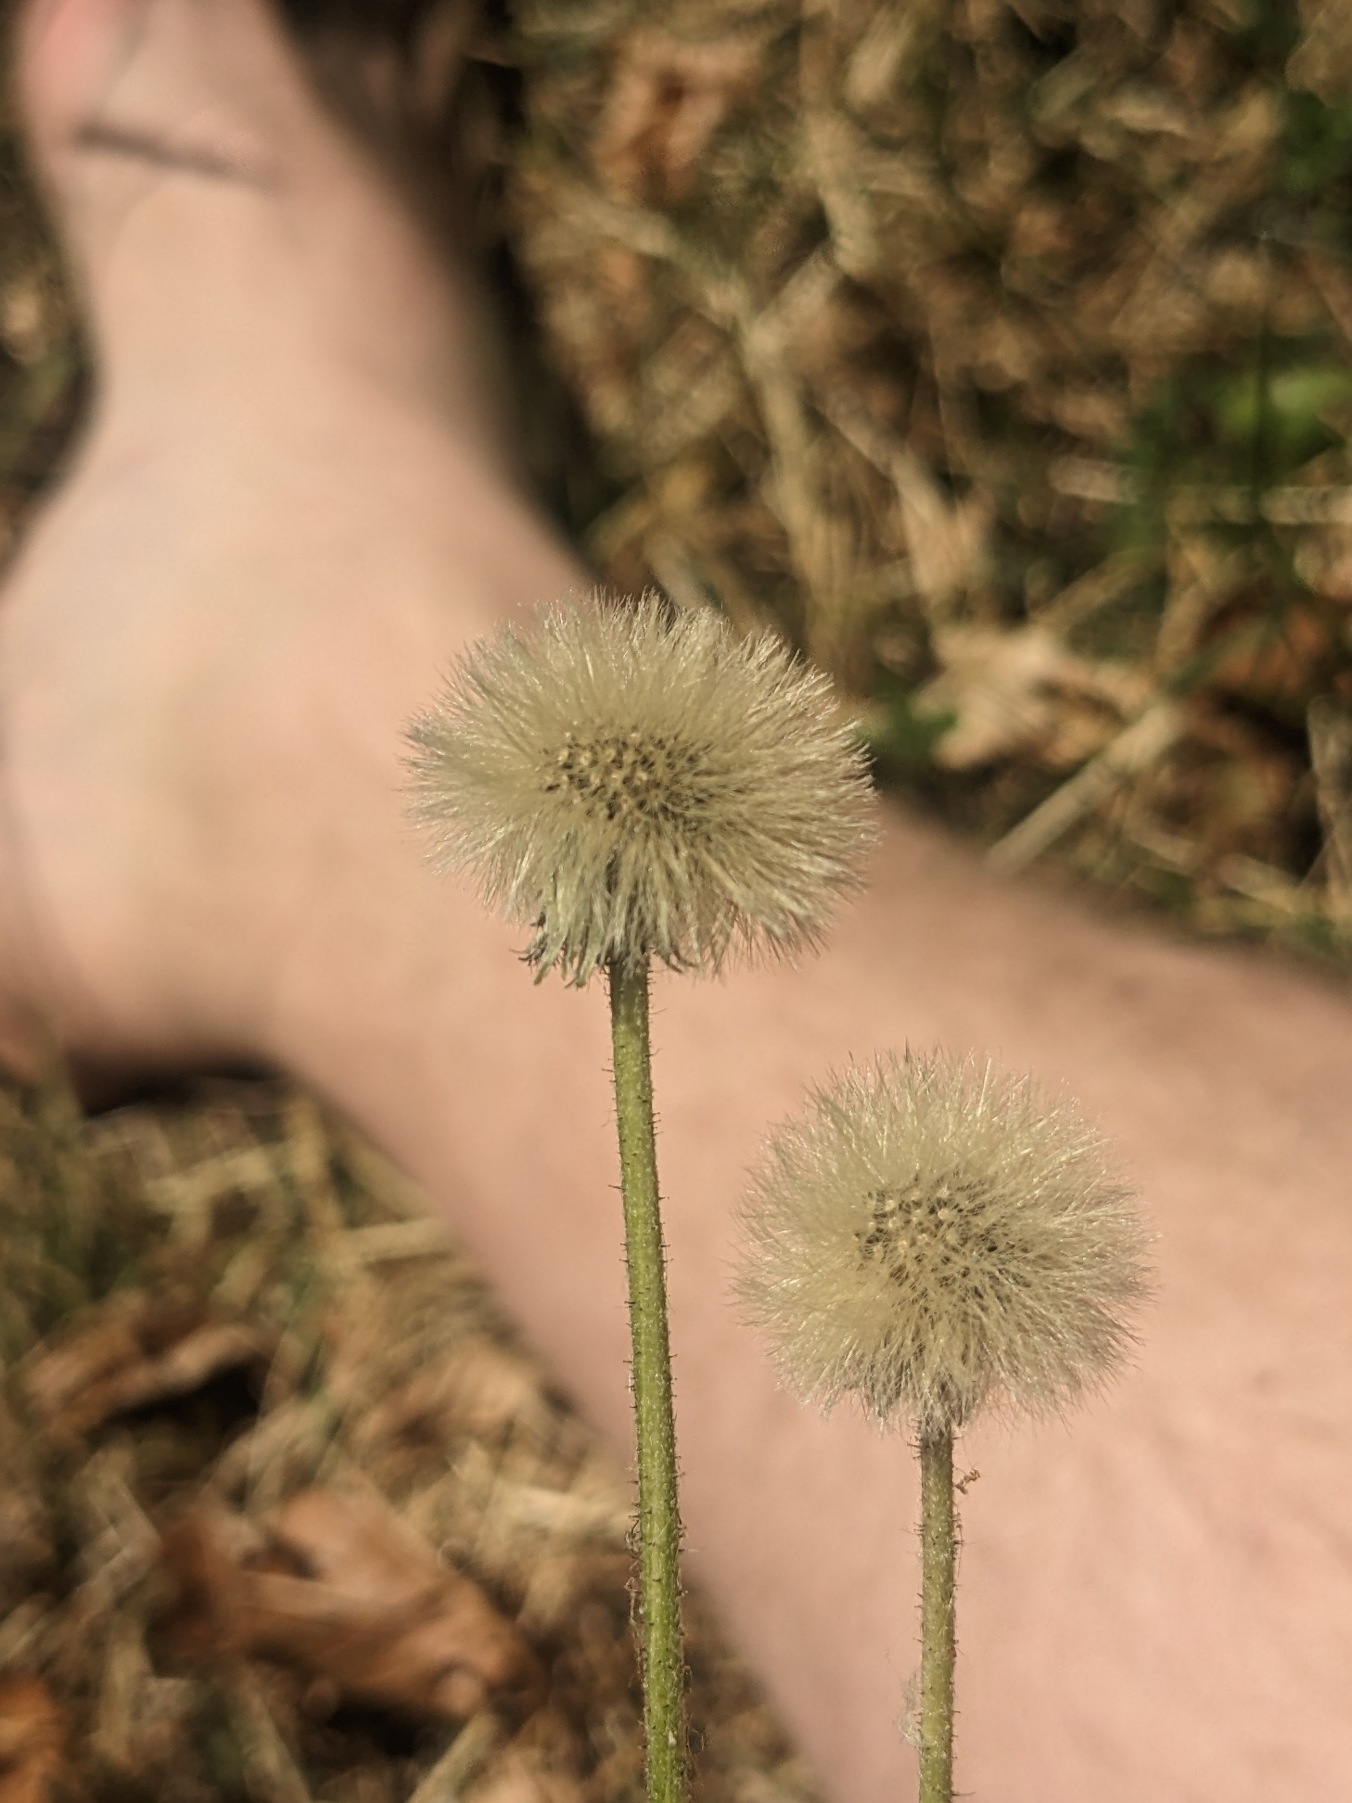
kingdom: Plantae
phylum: Tracheophyta
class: Magnoliopsida
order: Asterales
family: Asteraceae
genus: Pilosella
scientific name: Pilosella officinarum
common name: Håret høgeurt
